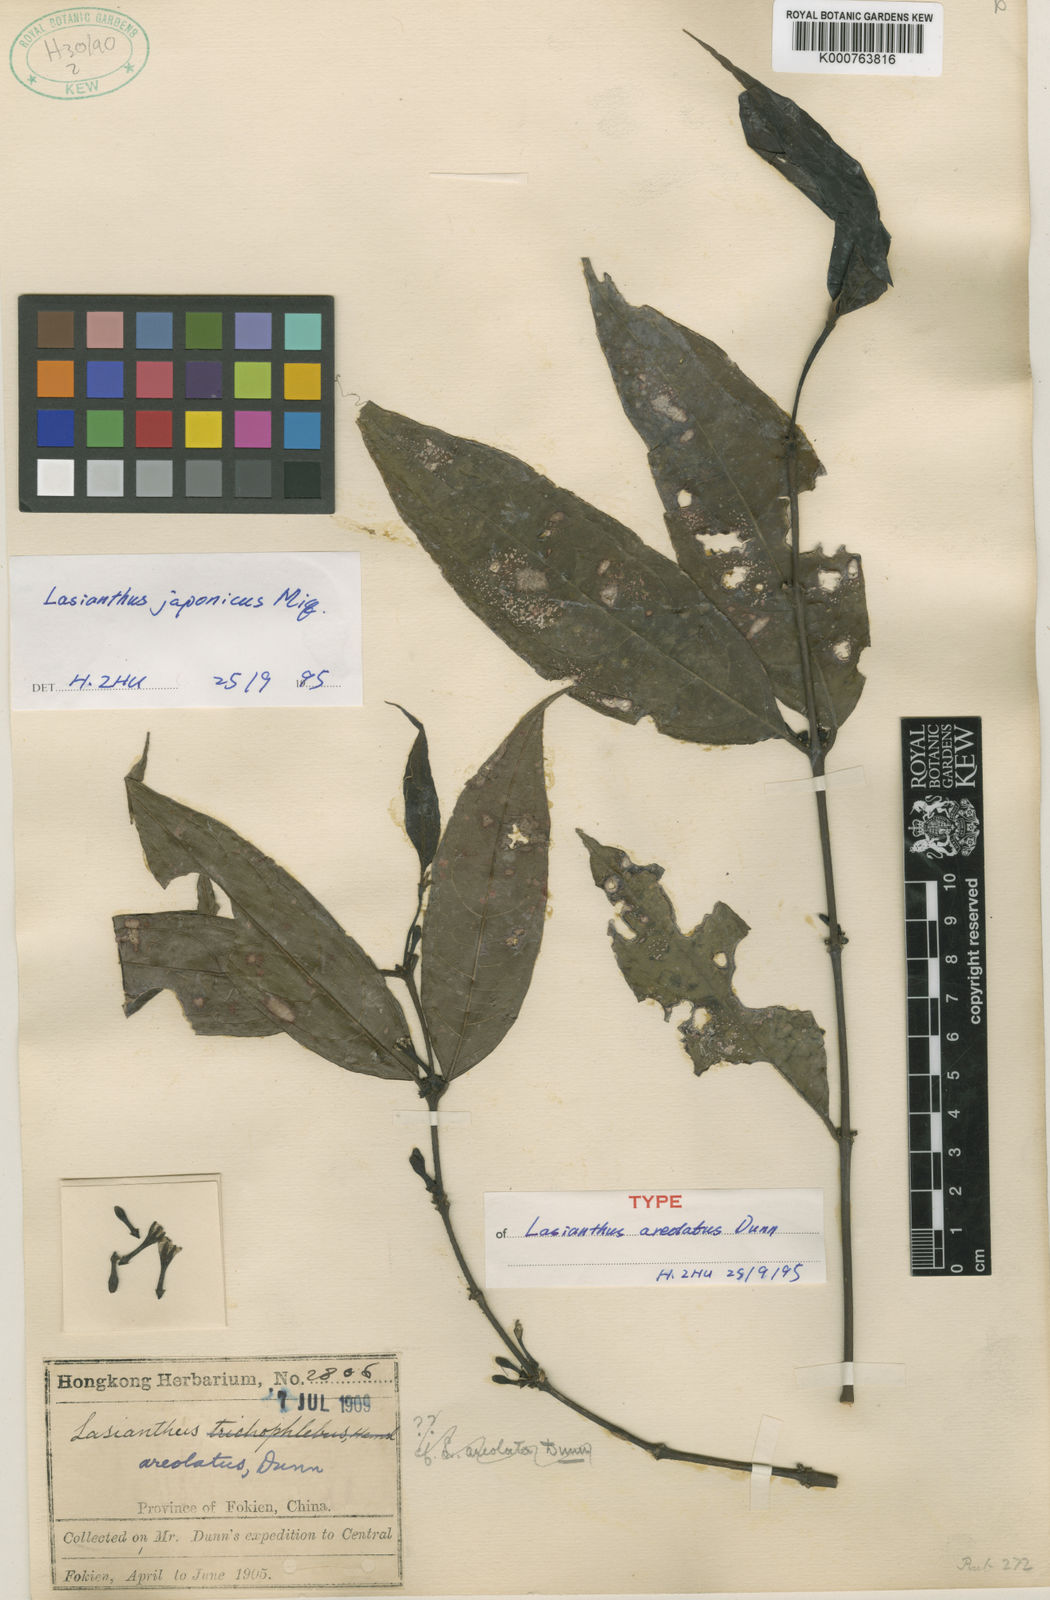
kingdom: Plantae
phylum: Tracheophyta
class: Magnoliopsida
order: Gentianales
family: Rubiaceae
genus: Lasianthus
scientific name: Lasianthus japonicus
